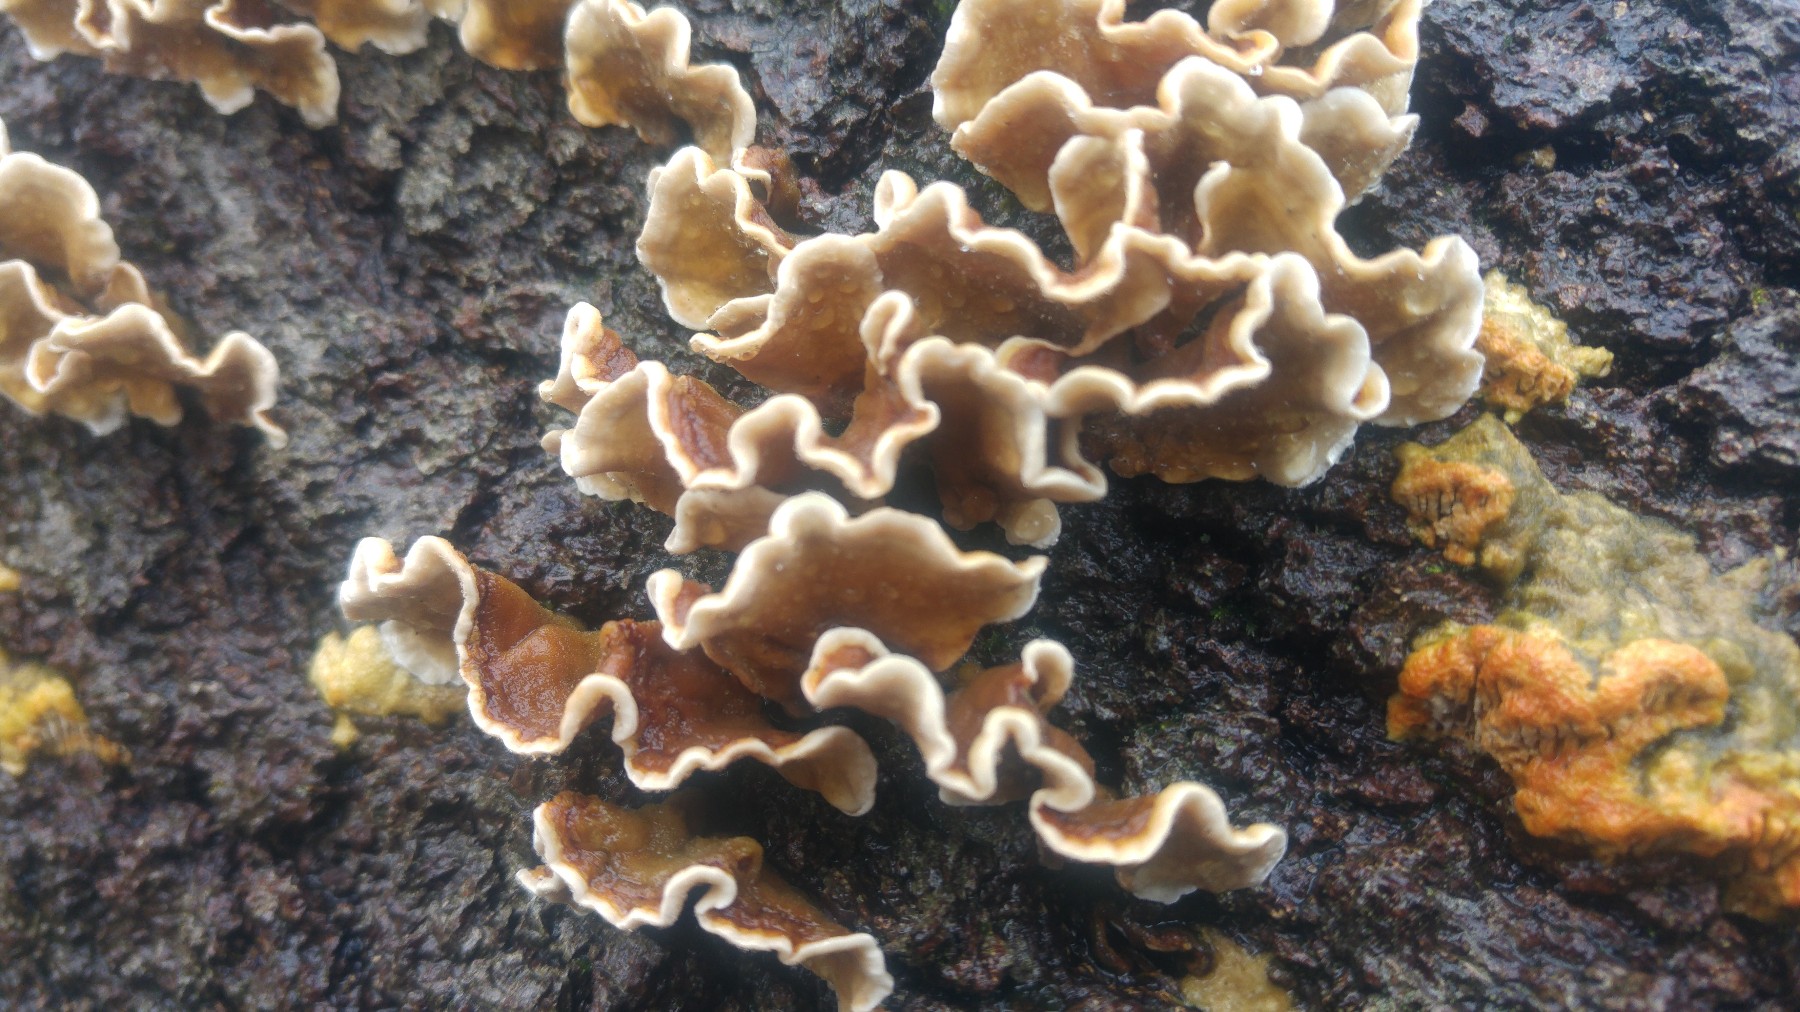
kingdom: Fungi
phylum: Basidiomycota
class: Agaricomycetes
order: Russulales
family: Stereaceae
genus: Stereum
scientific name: Stereum hirsutum
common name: håret lædersvamp
